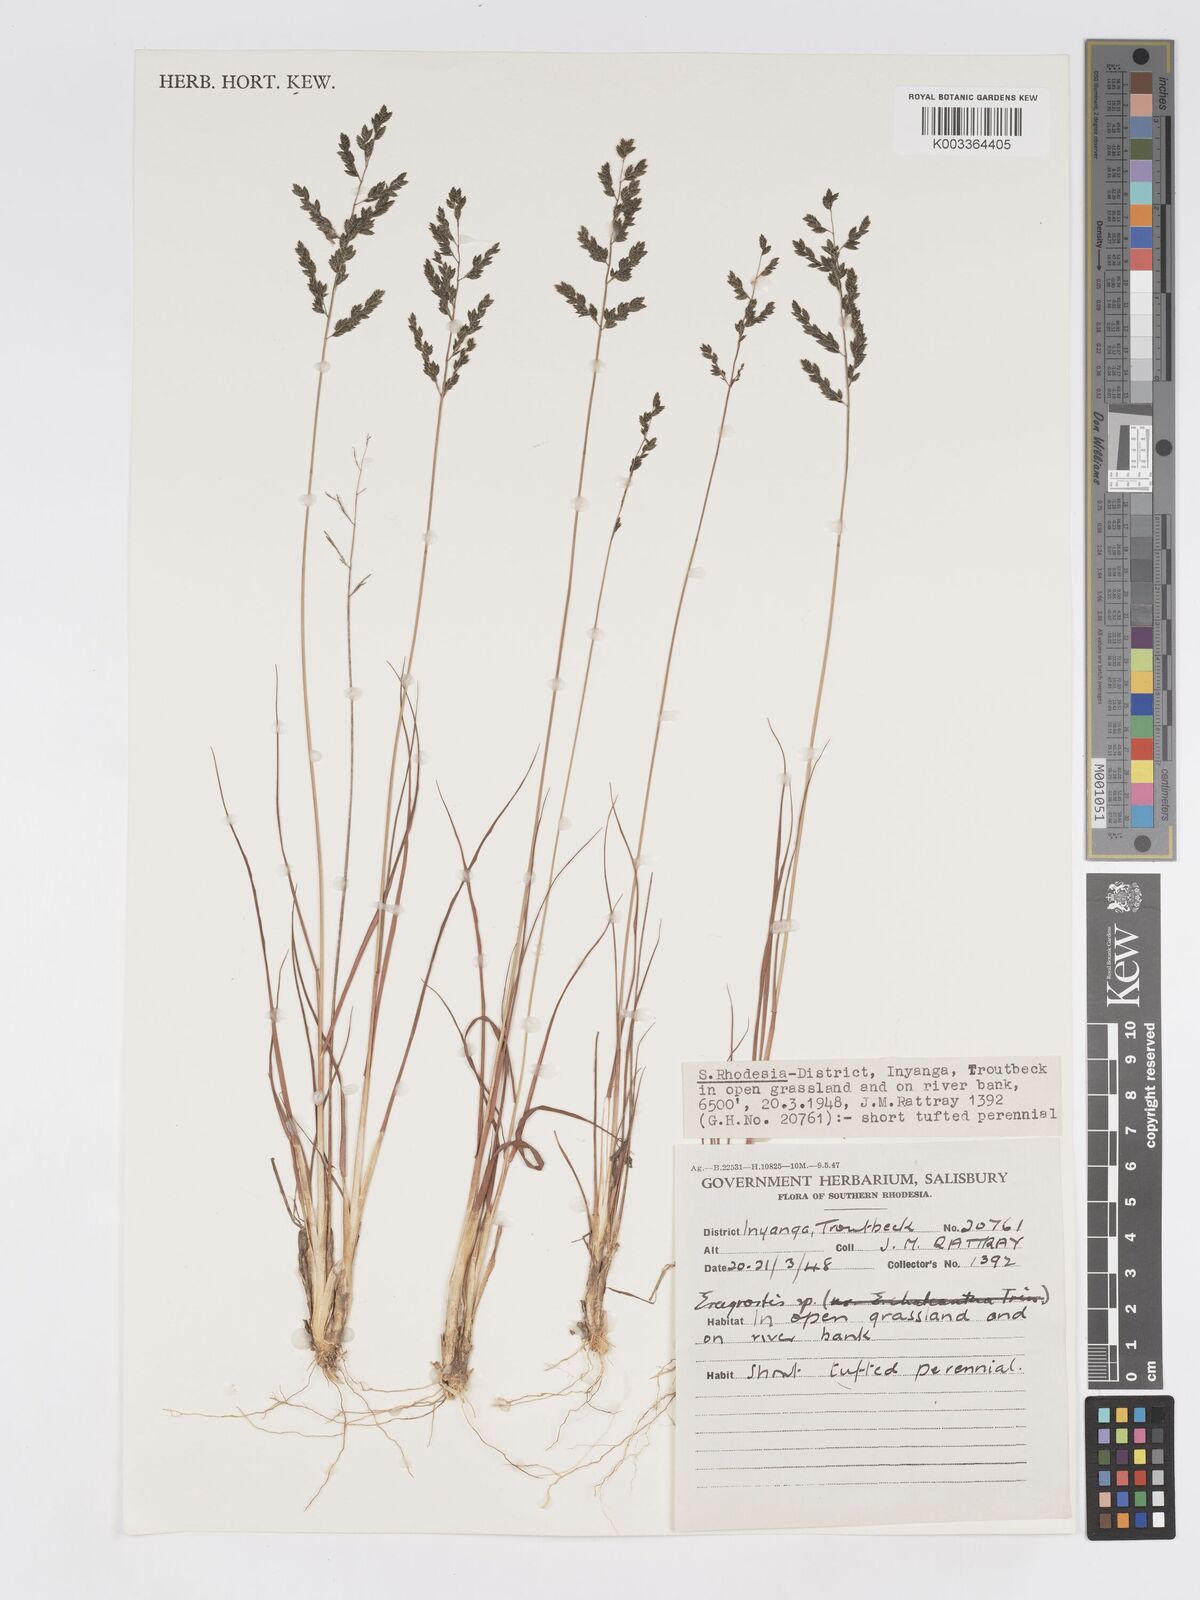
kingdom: Plantae
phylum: Tracheophyta
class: Liliopsida
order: Poales
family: Poaceae
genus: Eragrostis
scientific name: Eragrostis racemosa
